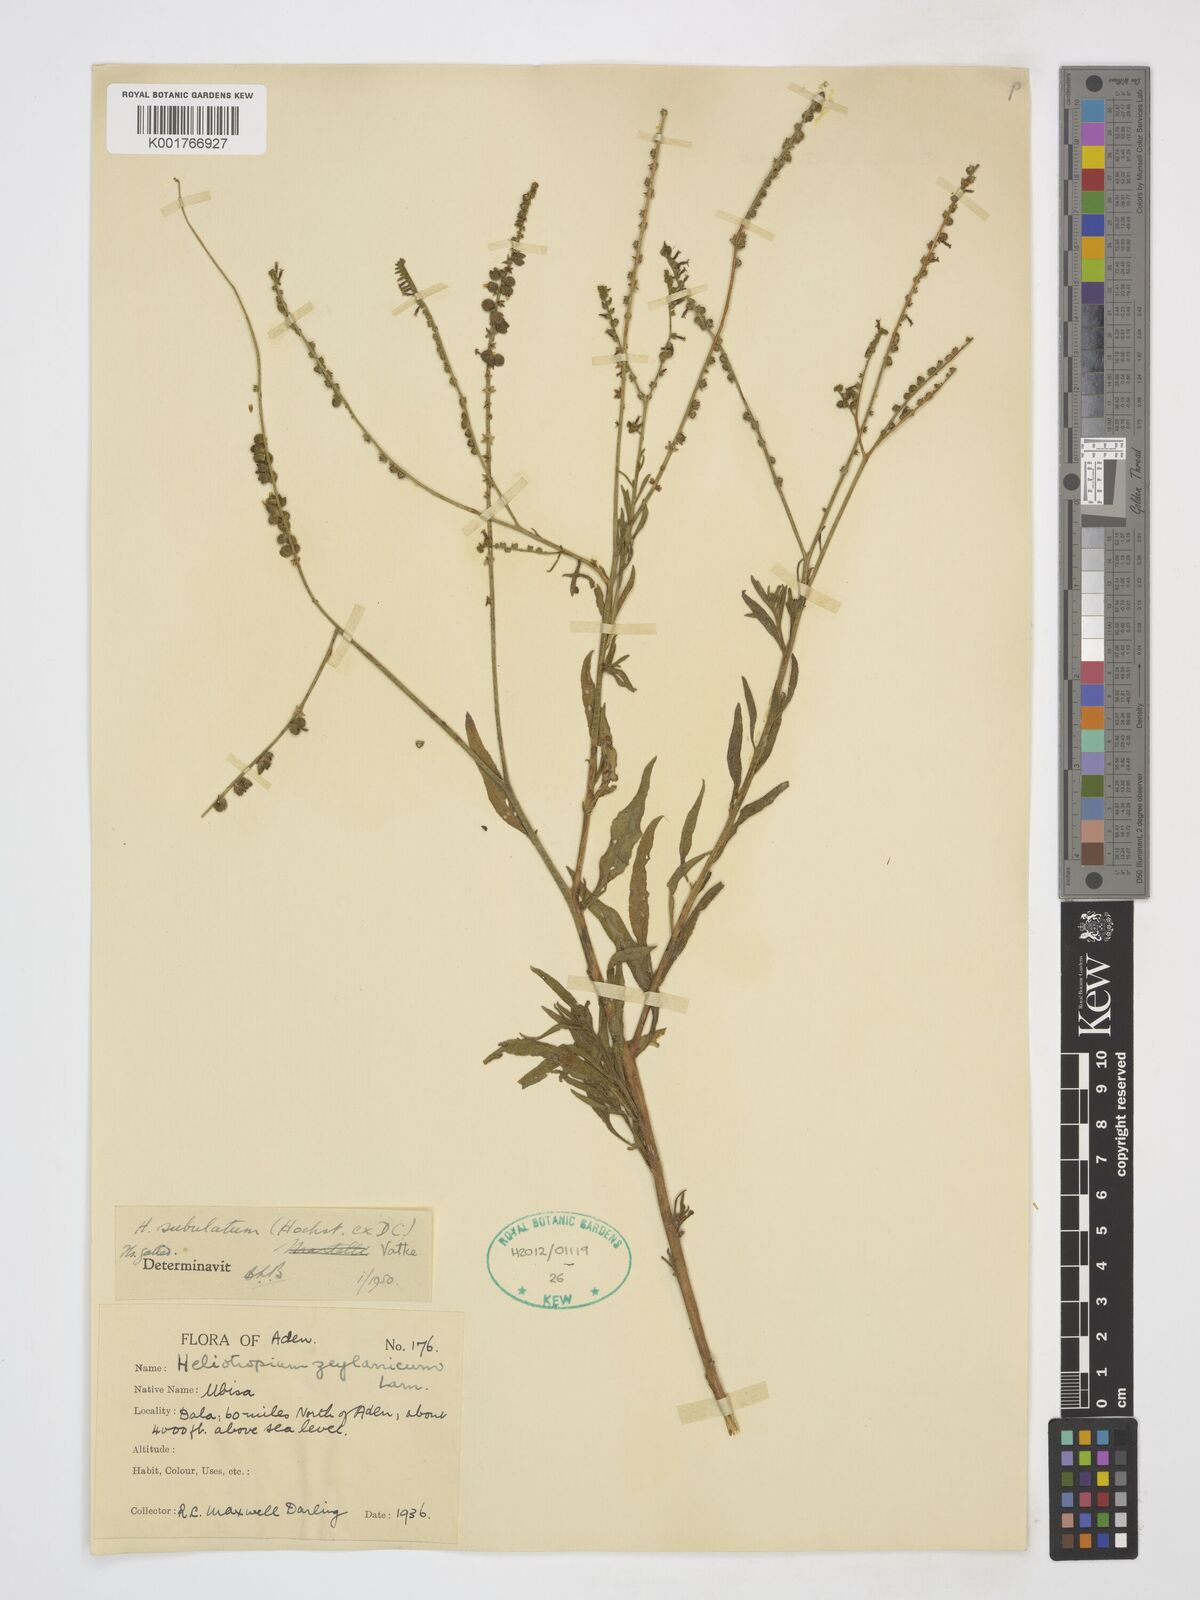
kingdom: Plantae
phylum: Tracheophyta
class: Magnoliopsida
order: Boraginales
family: Heliotropiaceae
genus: Heliotropium
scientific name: Heliotropium zeylanicum
